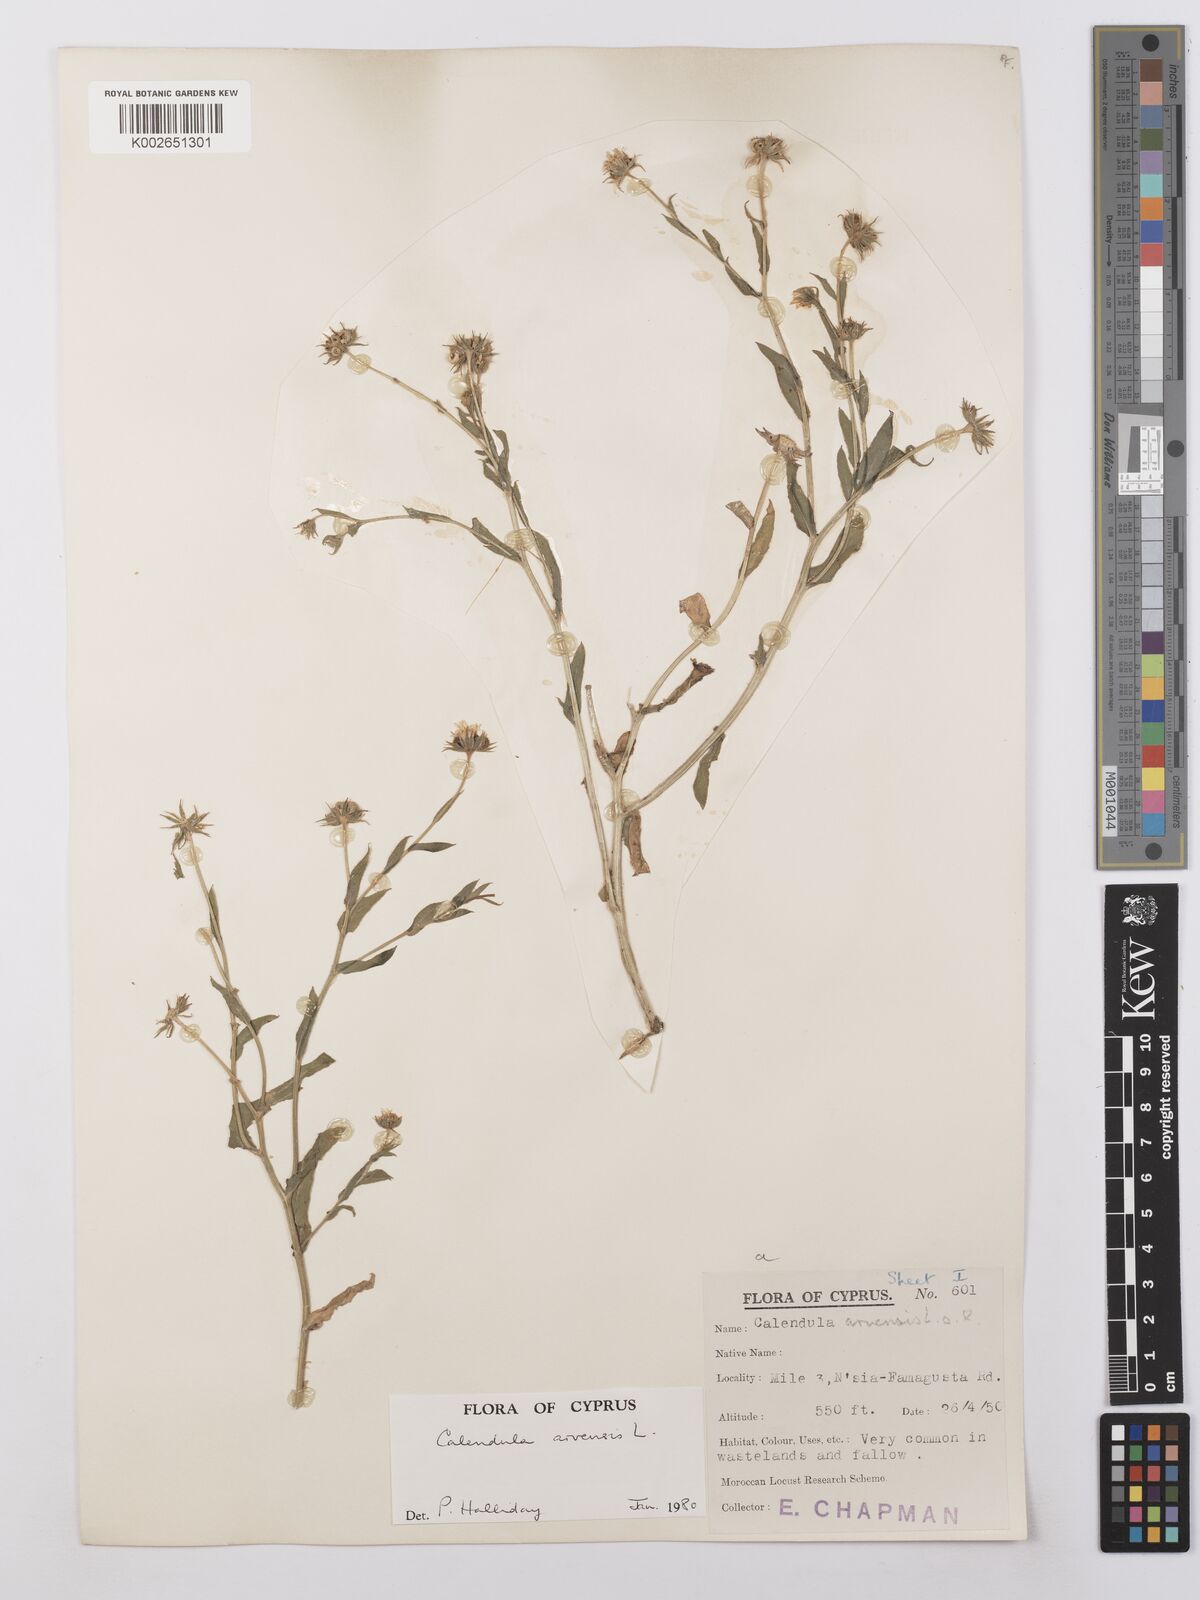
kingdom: Plantae
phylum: Tracheophyta
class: Magnoliopsida
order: Asterales
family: Asteraceae
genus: Calendula
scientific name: Calendula arvensis
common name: Field marigold
